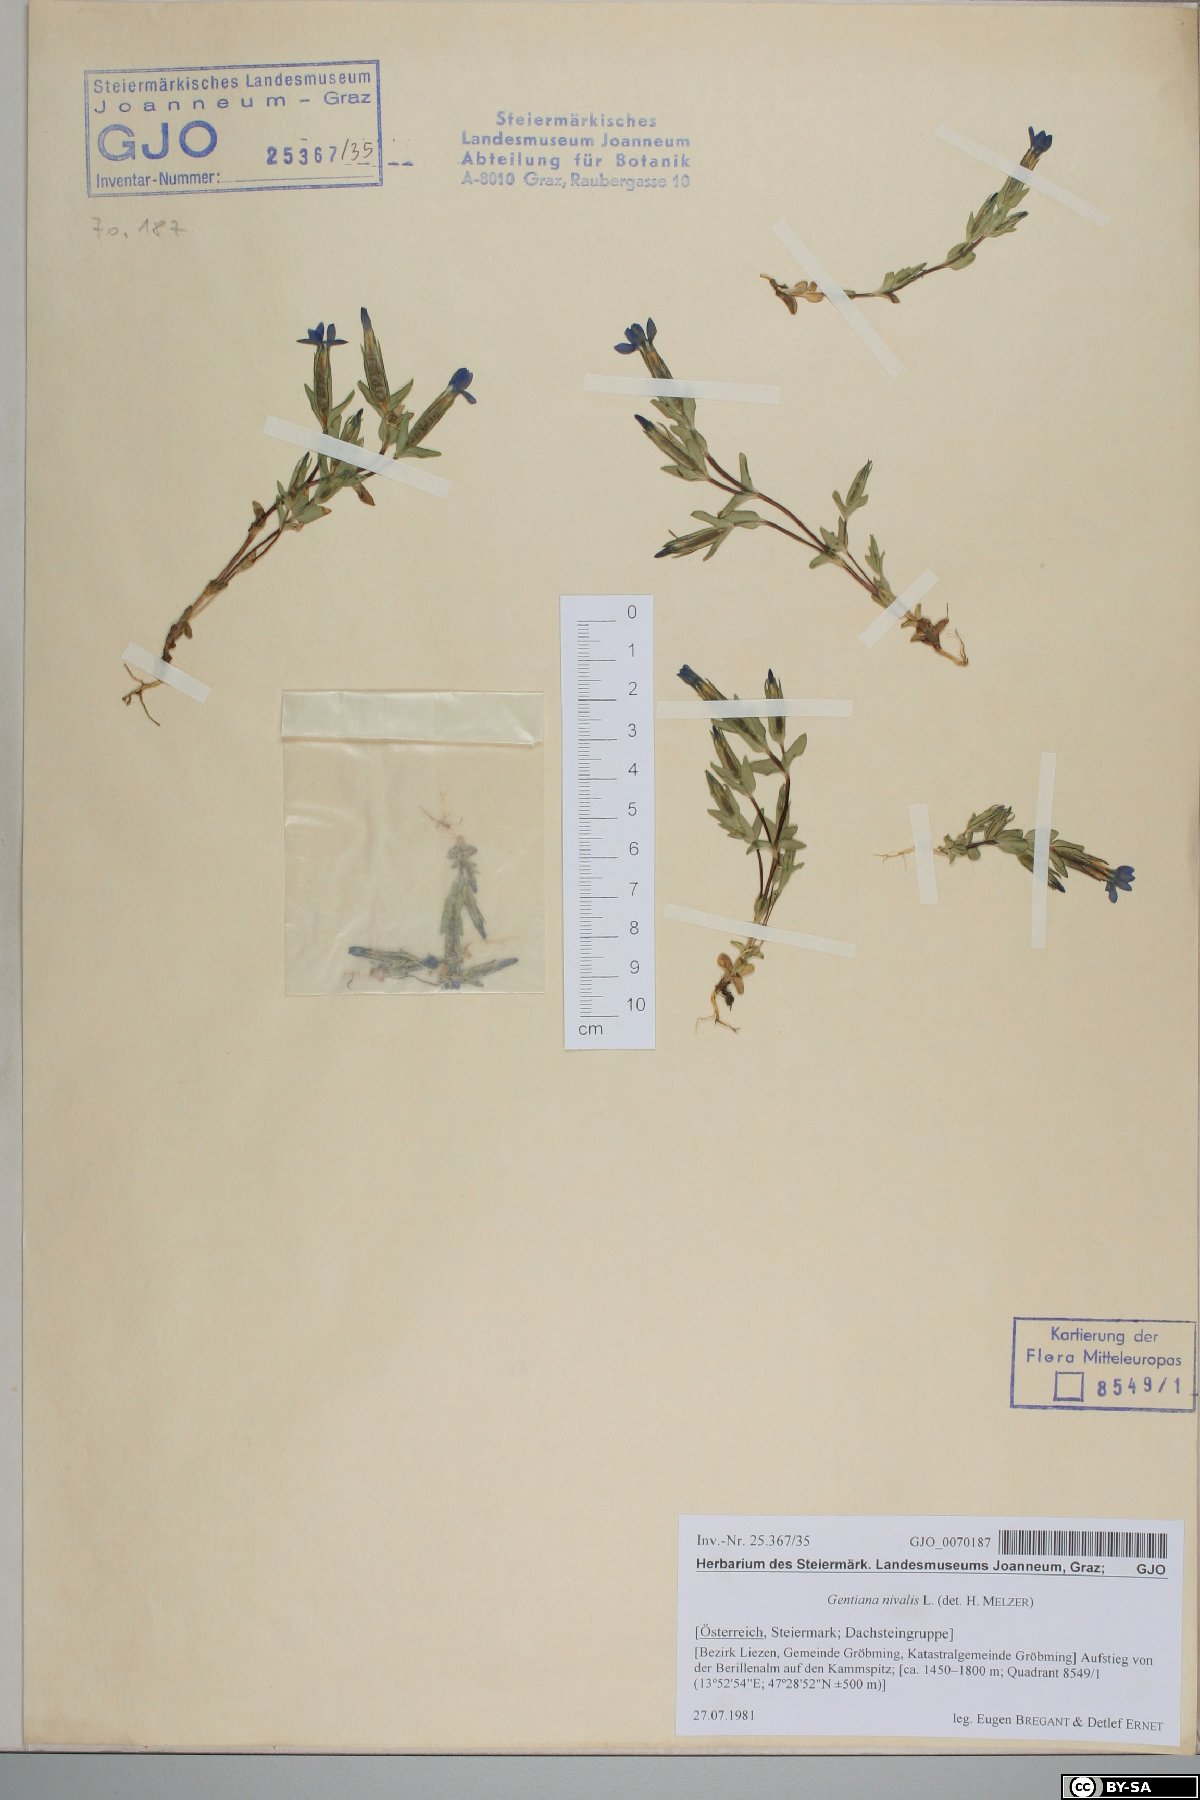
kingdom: Plantae
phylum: Tracheophyta
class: Magnoliopsida
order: Gentianales
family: Gentianaceae
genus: Gentiana
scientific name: Gentiana nivalis
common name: Alpine gentian
